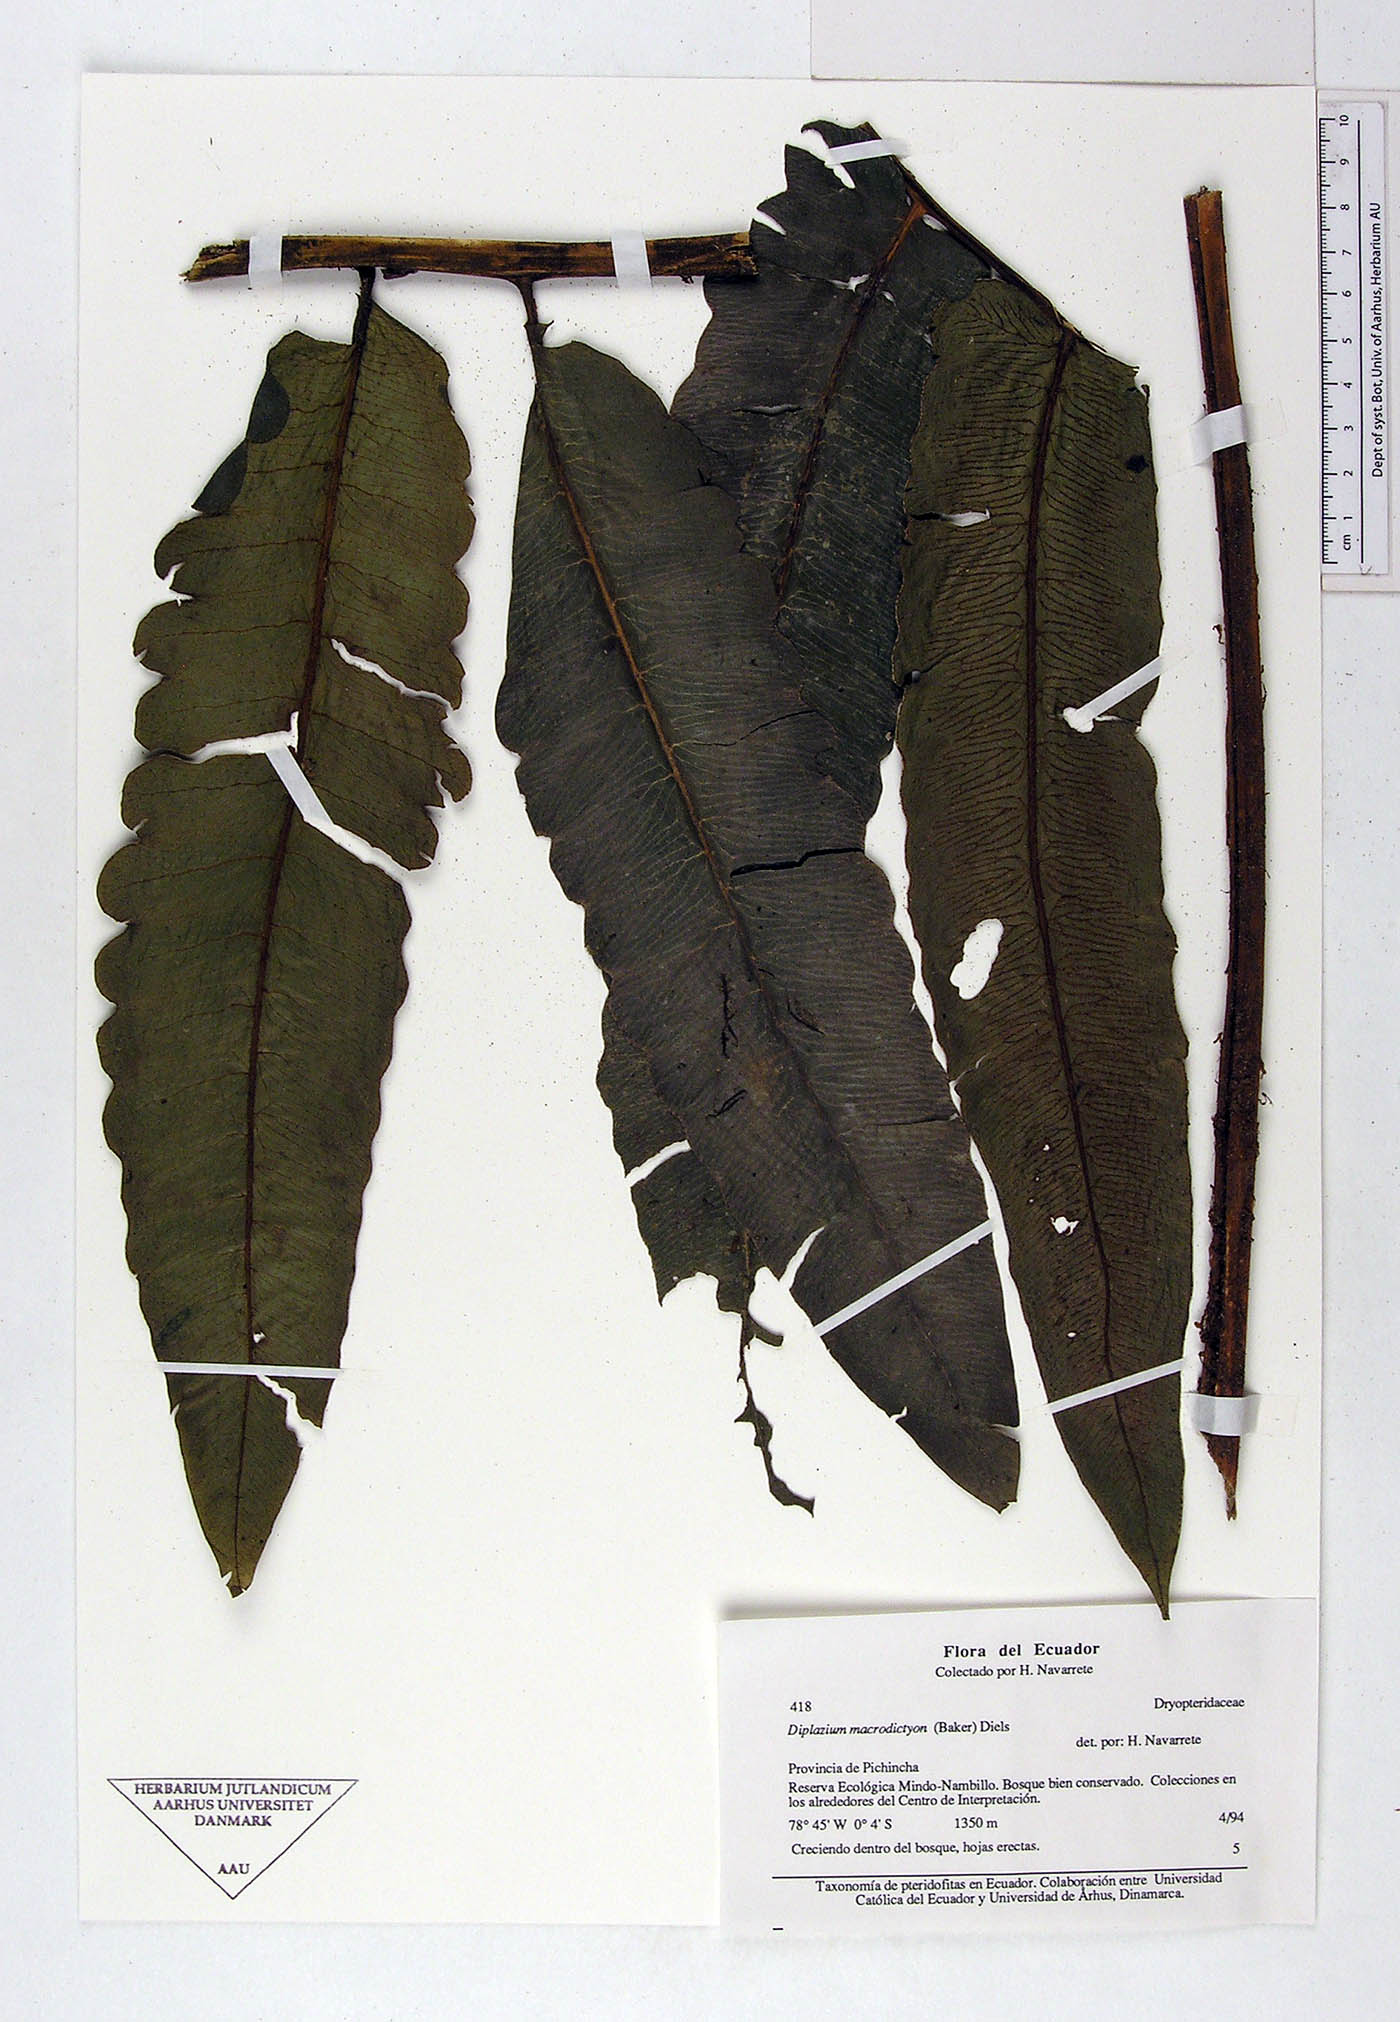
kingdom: Plantae
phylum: Tracheophyta
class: Polypodiopsida
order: Polypodiales
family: Athyriaceae
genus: Diplazium
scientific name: Diplazium
